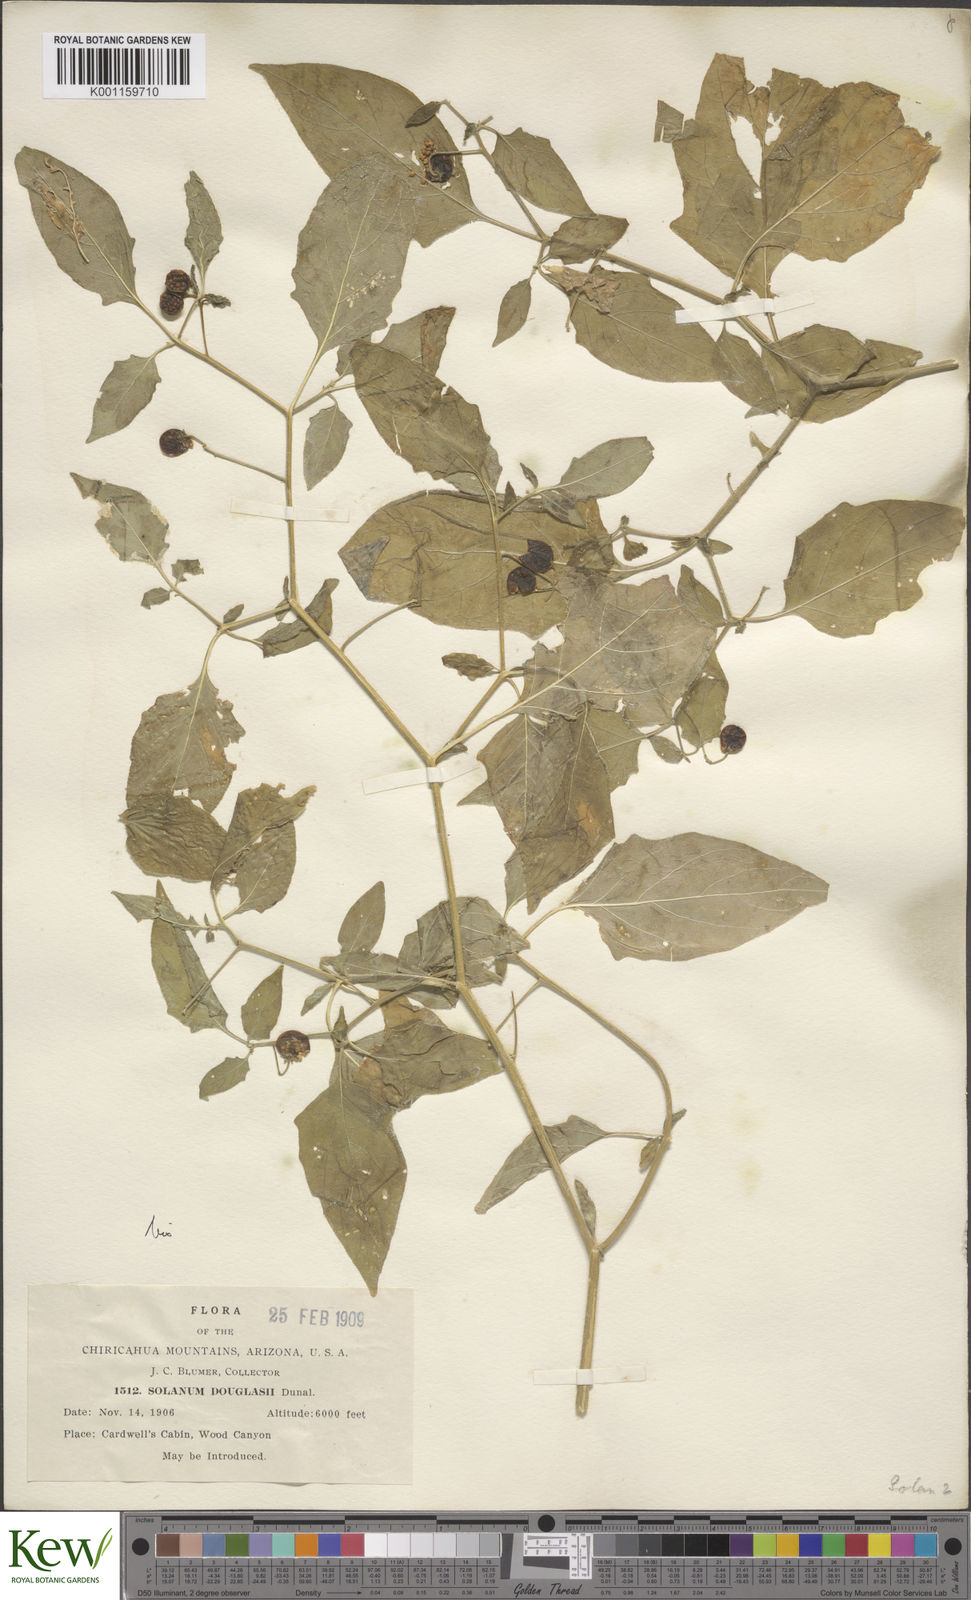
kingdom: Plantae
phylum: Tracheophyta
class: Magnoliopsida
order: Solanales
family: Solanaceae
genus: Solanum
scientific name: Solanum interius
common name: Plains black nightshade
